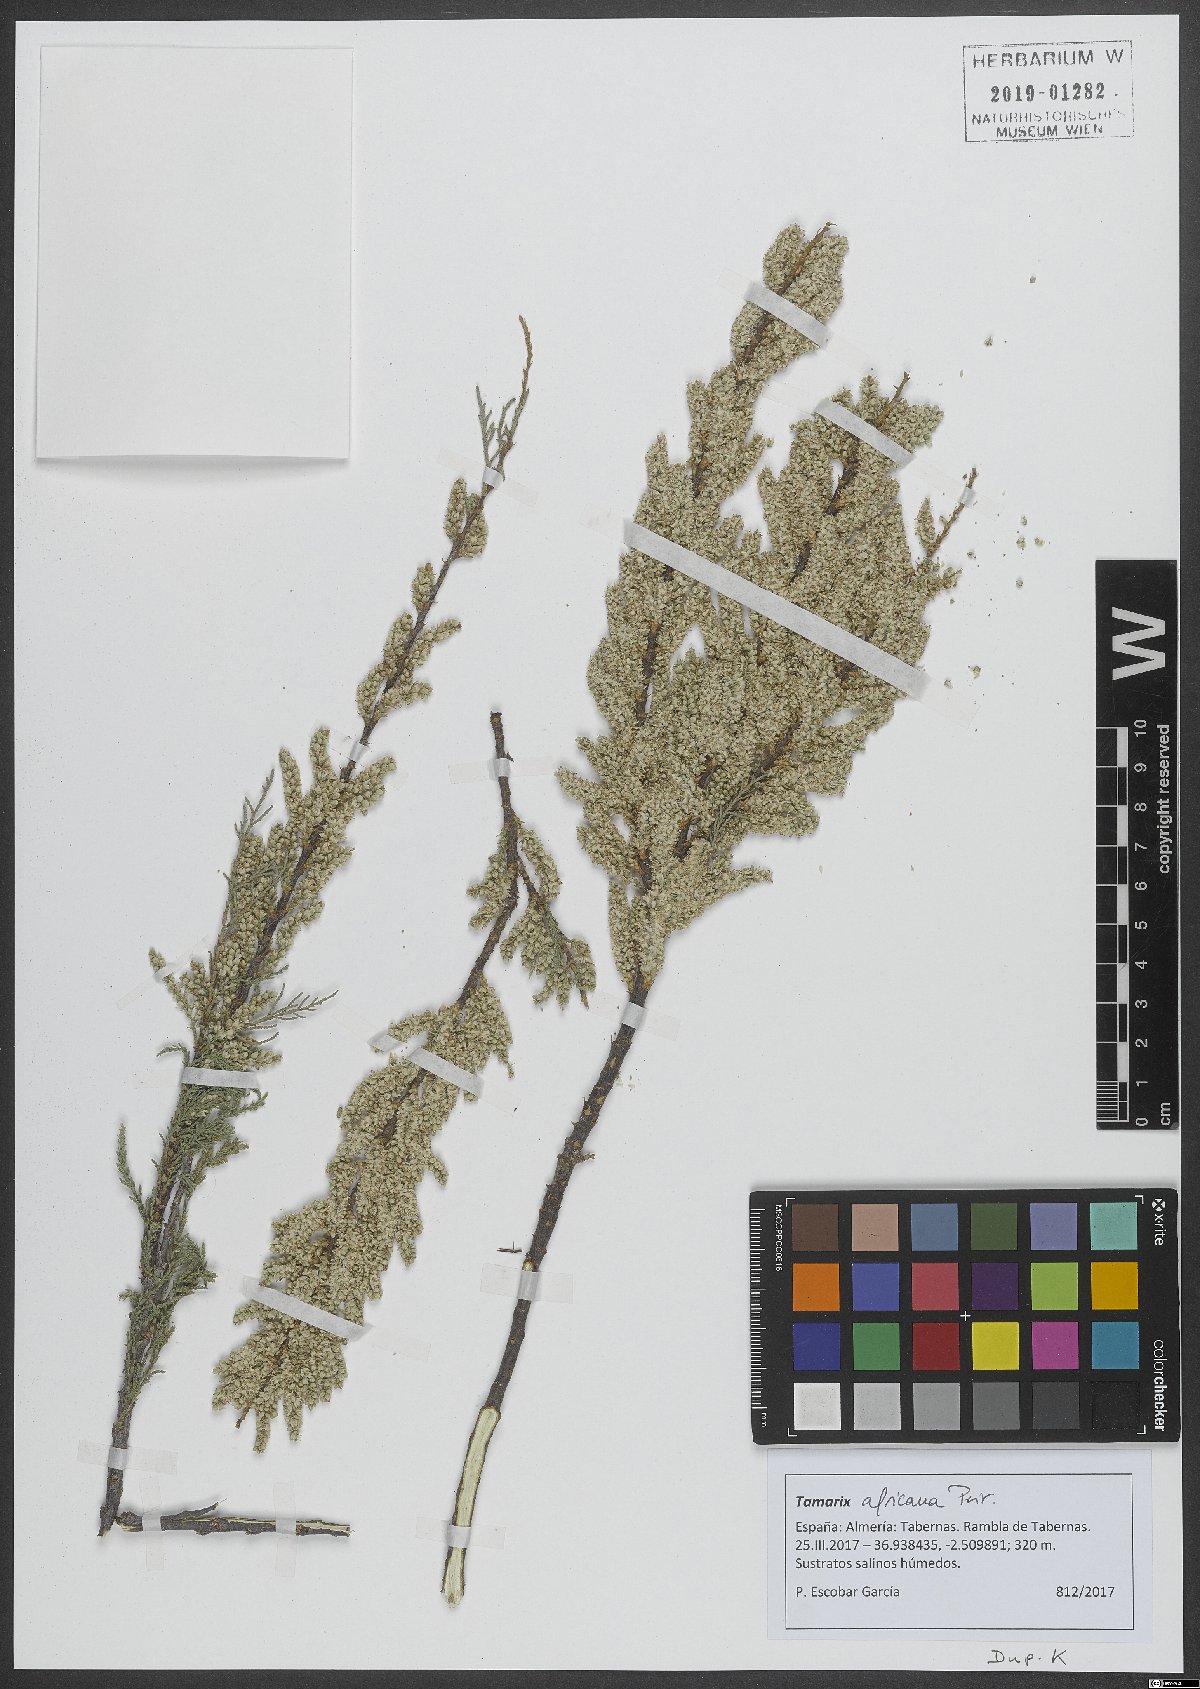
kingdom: Plantae
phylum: Tracheophyta
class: Magnoliopsida
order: Caryophyllales
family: Tamaricaceae
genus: Tamarix
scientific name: Tamarix africana
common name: African tamarisk
